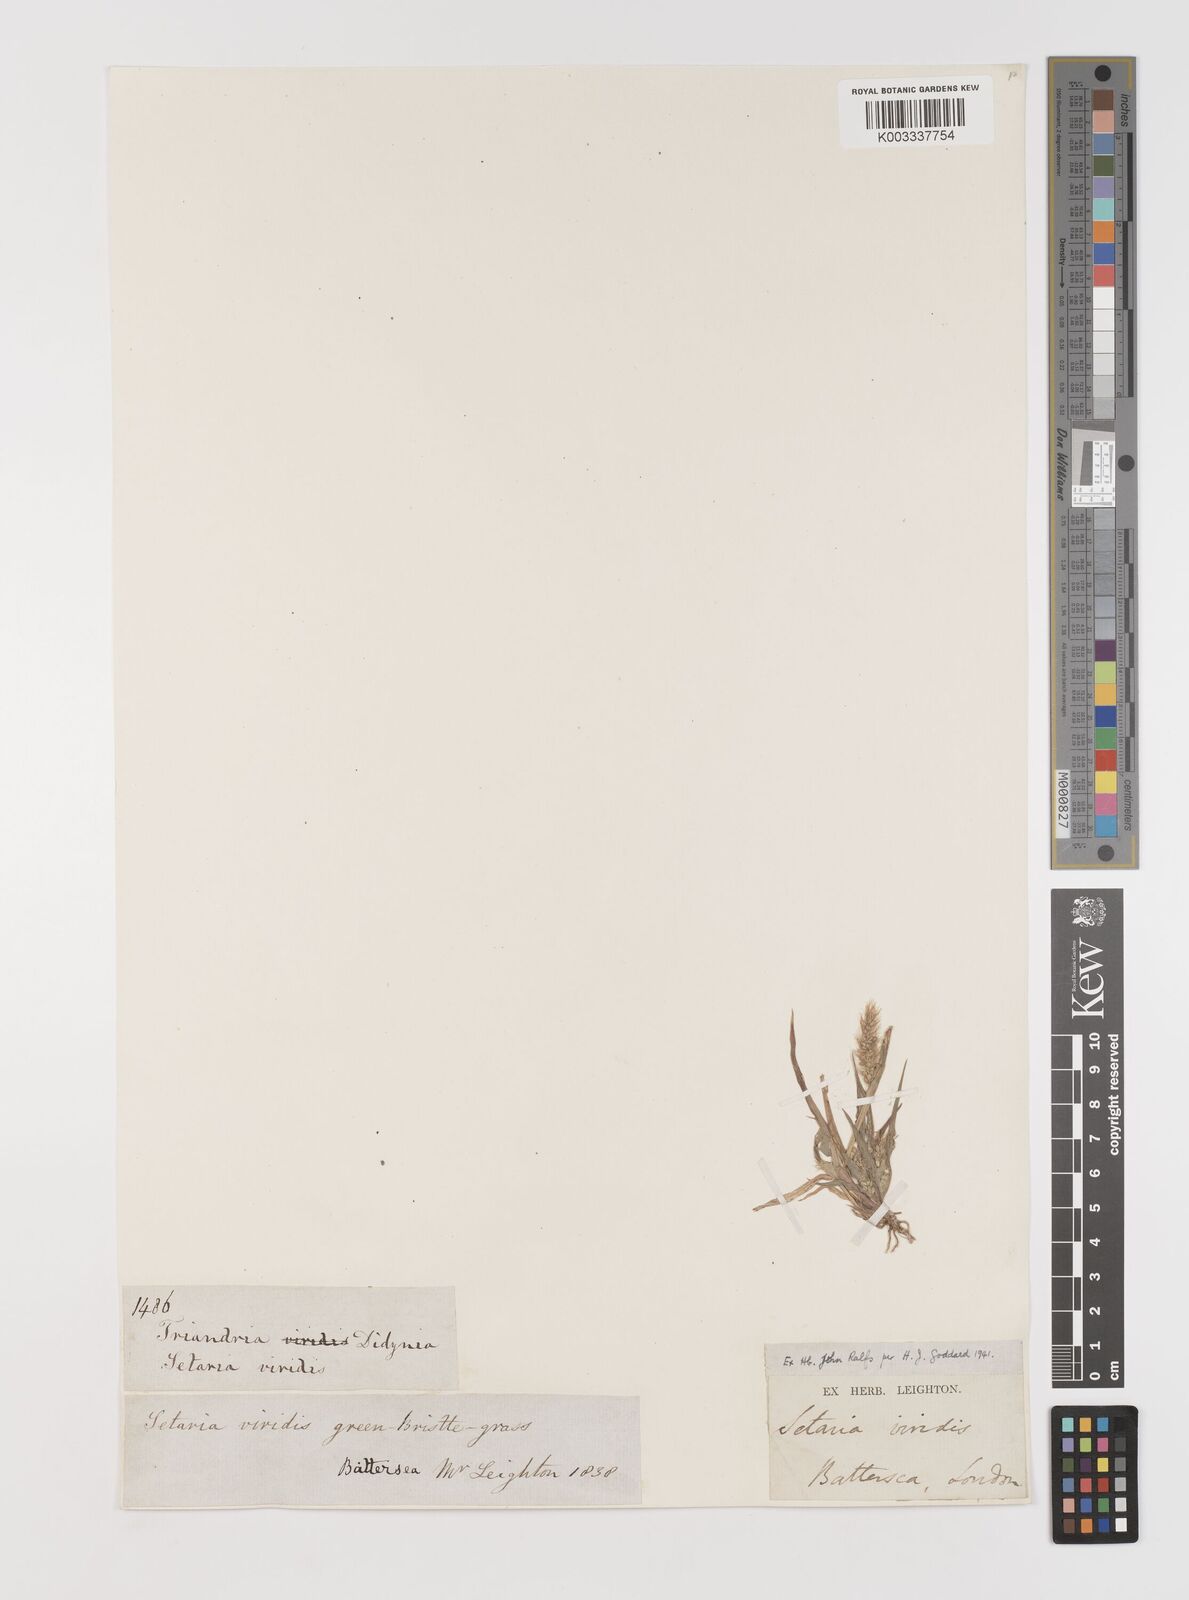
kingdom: Plantae
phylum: Tracheophyta
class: Liliopsida
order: Poales
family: Poaceae
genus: Setaria
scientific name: Setaria viridis
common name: Green bristlegrass
